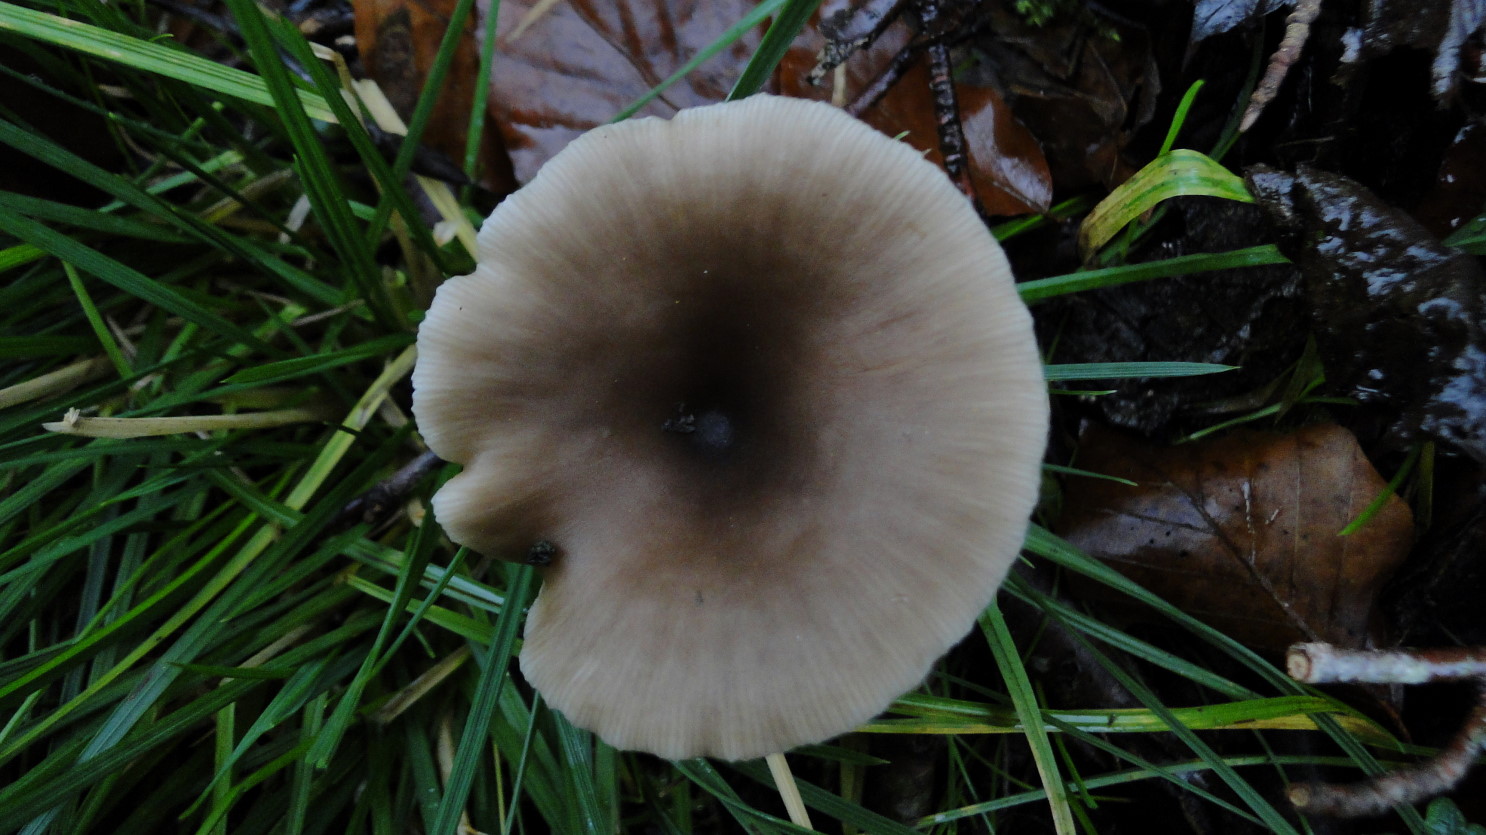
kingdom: Fungi
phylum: Basidiomycota
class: Agaricomycetes
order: Agaricales
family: Pseudoclitocybaceae
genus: Pseudoclitocybe
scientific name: Pseudoclitocybe cyathiformis
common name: almindelig bægertragthat
